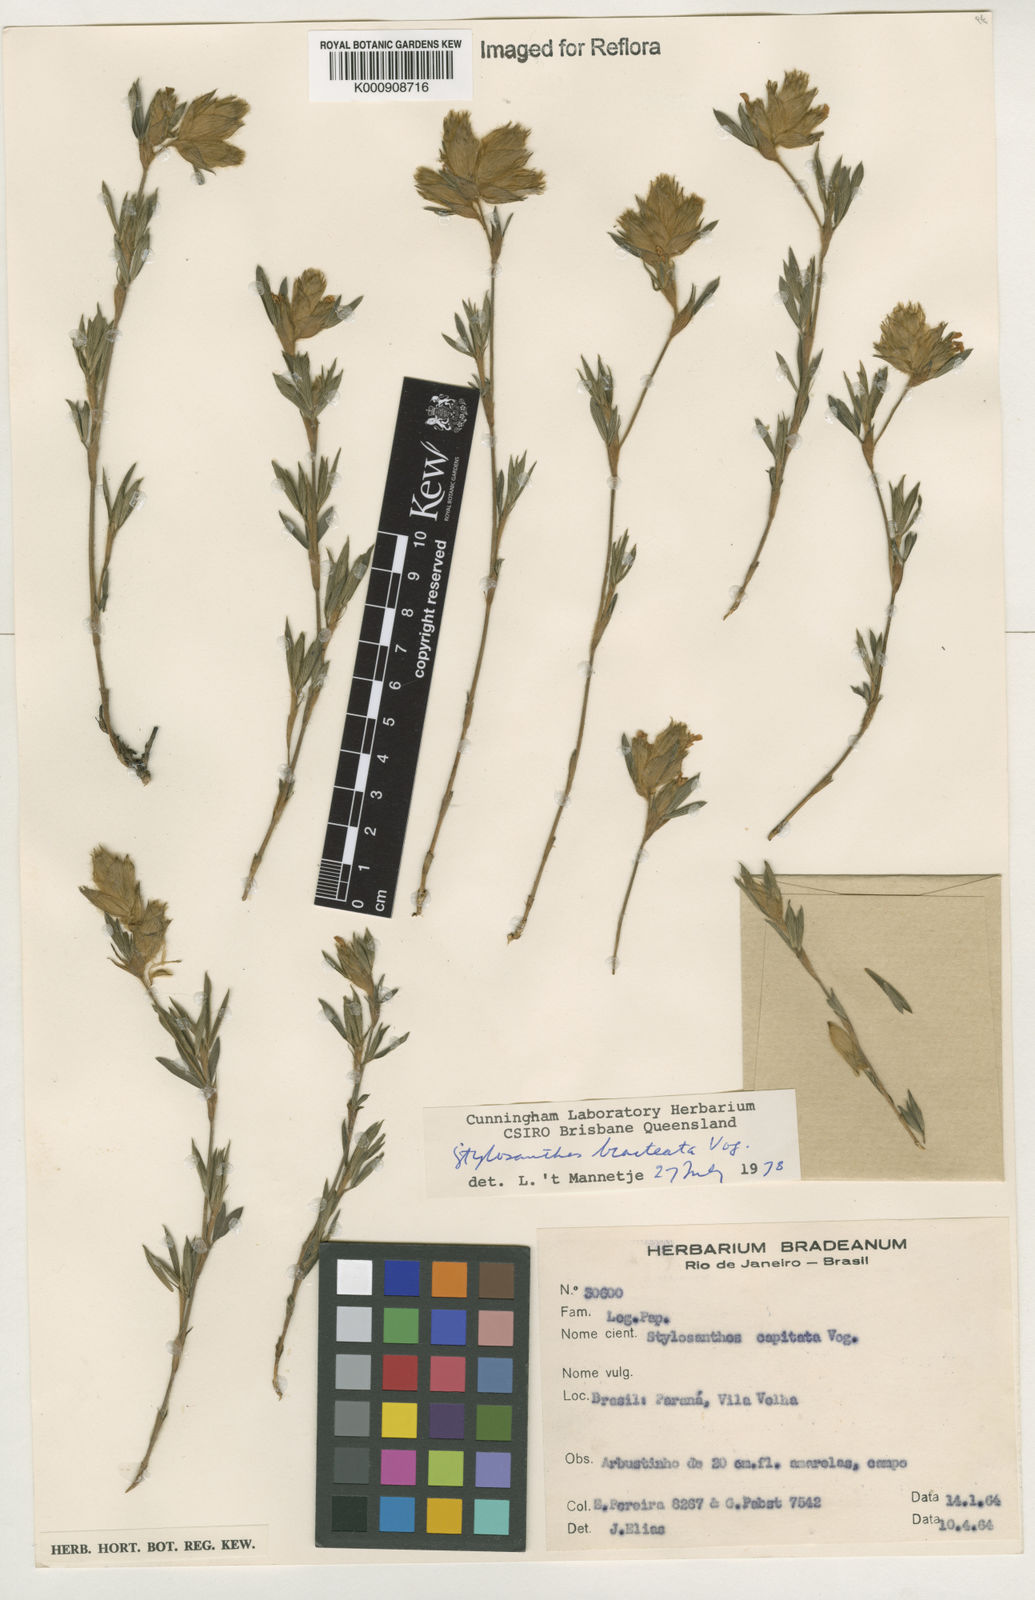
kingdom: Plantae
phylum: Tracheophyta
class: Magnoliopsida
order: Fabales
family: Fabaceae
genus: Stylosanthes
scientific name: Stylosanthes bracteata
